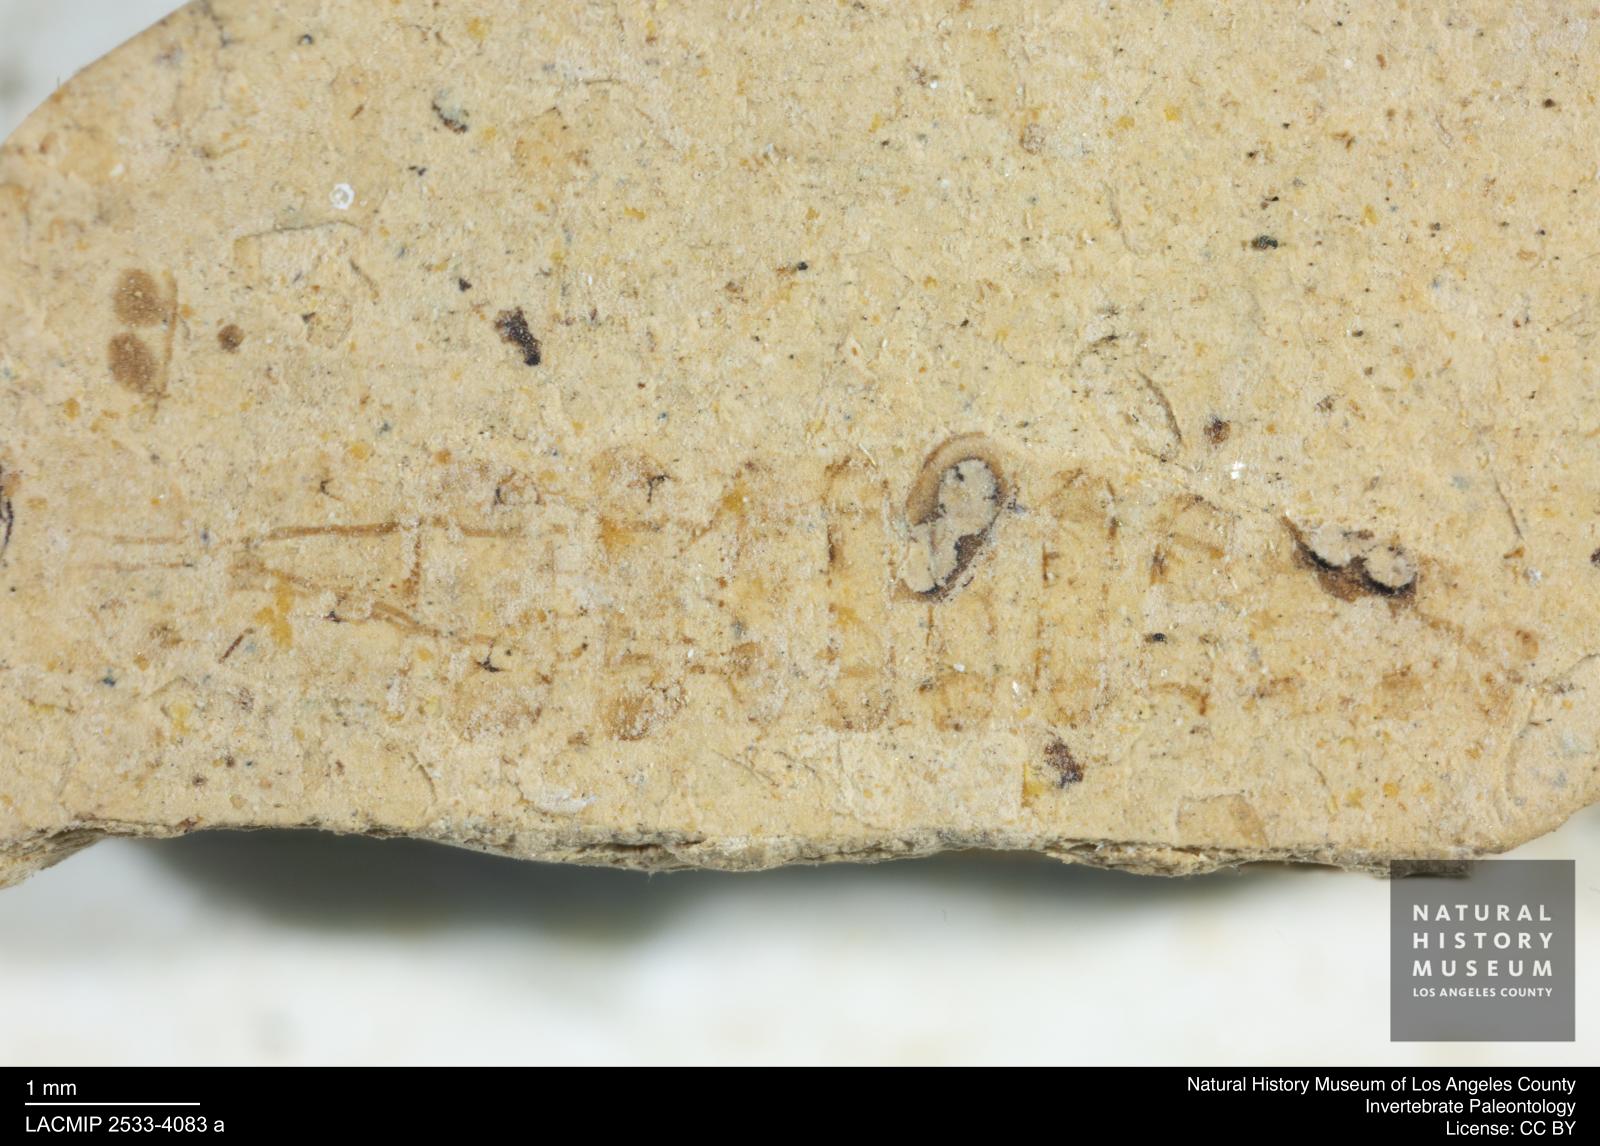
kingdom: Animalia
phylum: Arthropoda
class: Insecta
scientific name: Insecta
